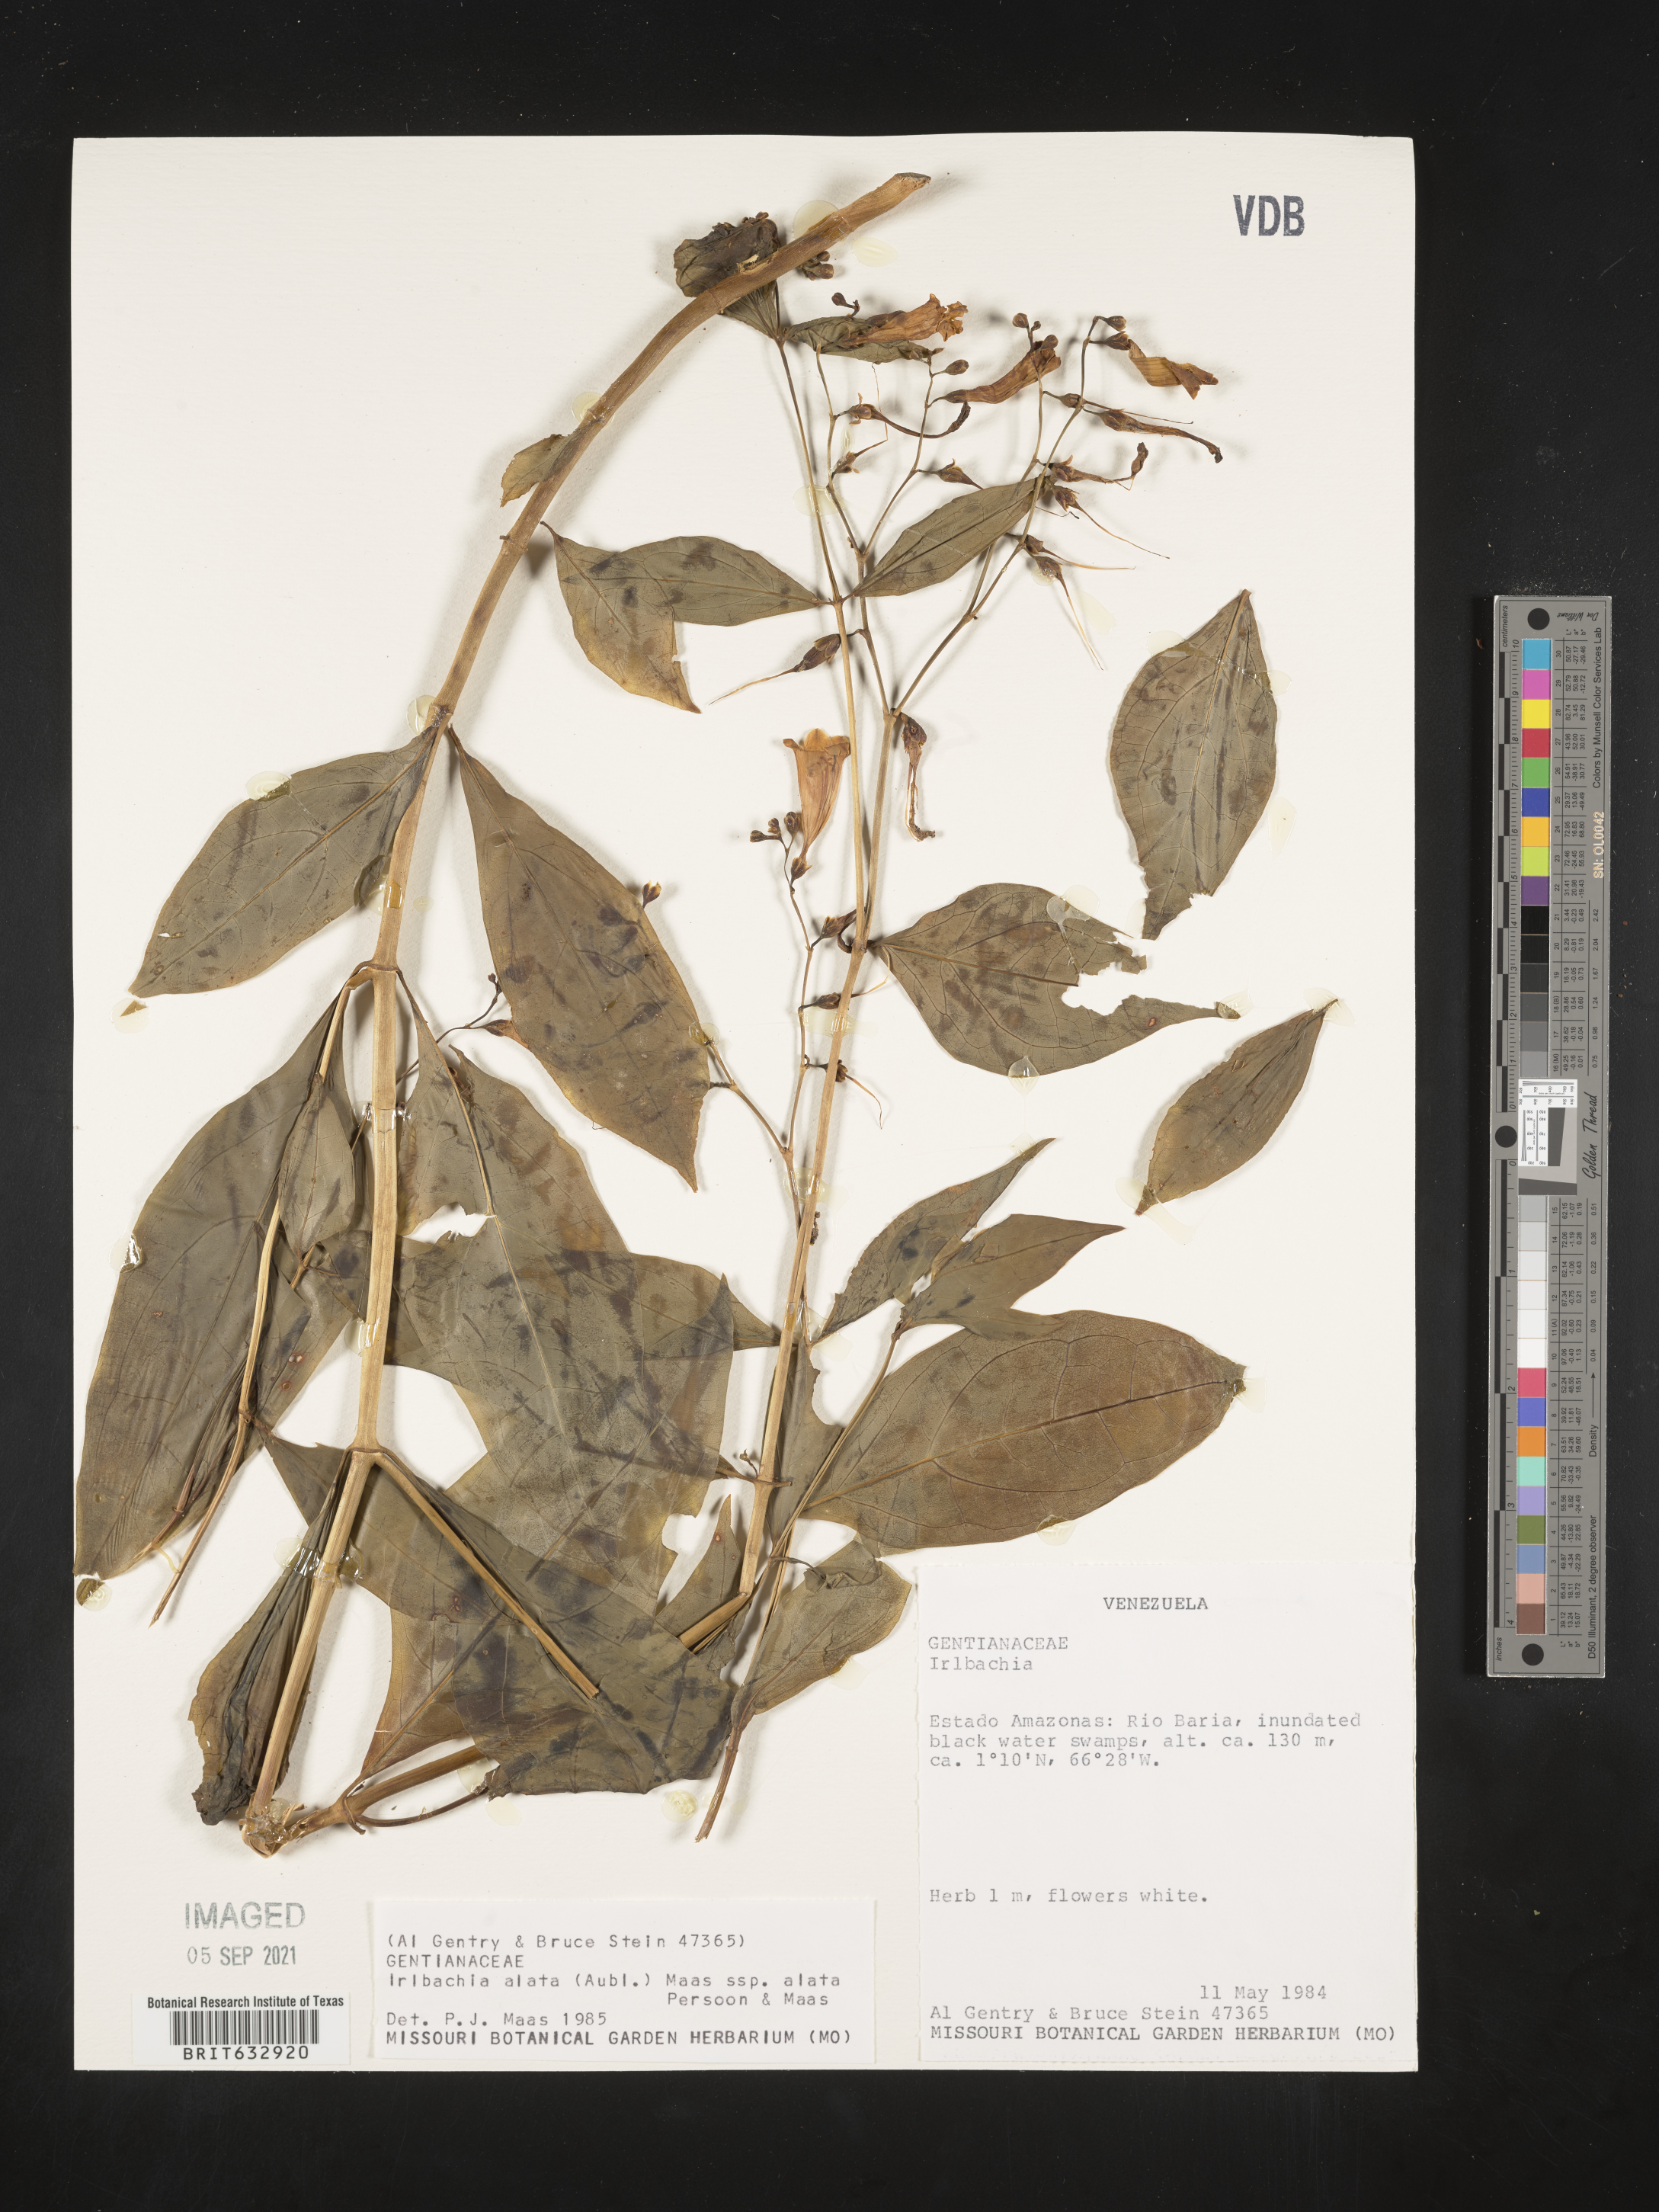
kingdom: Plantae
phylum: Tracheophyta
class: Magnoliopsida
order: Gentianales
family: Gentianaceae
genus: Irlbachia
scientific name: Irlbachia
